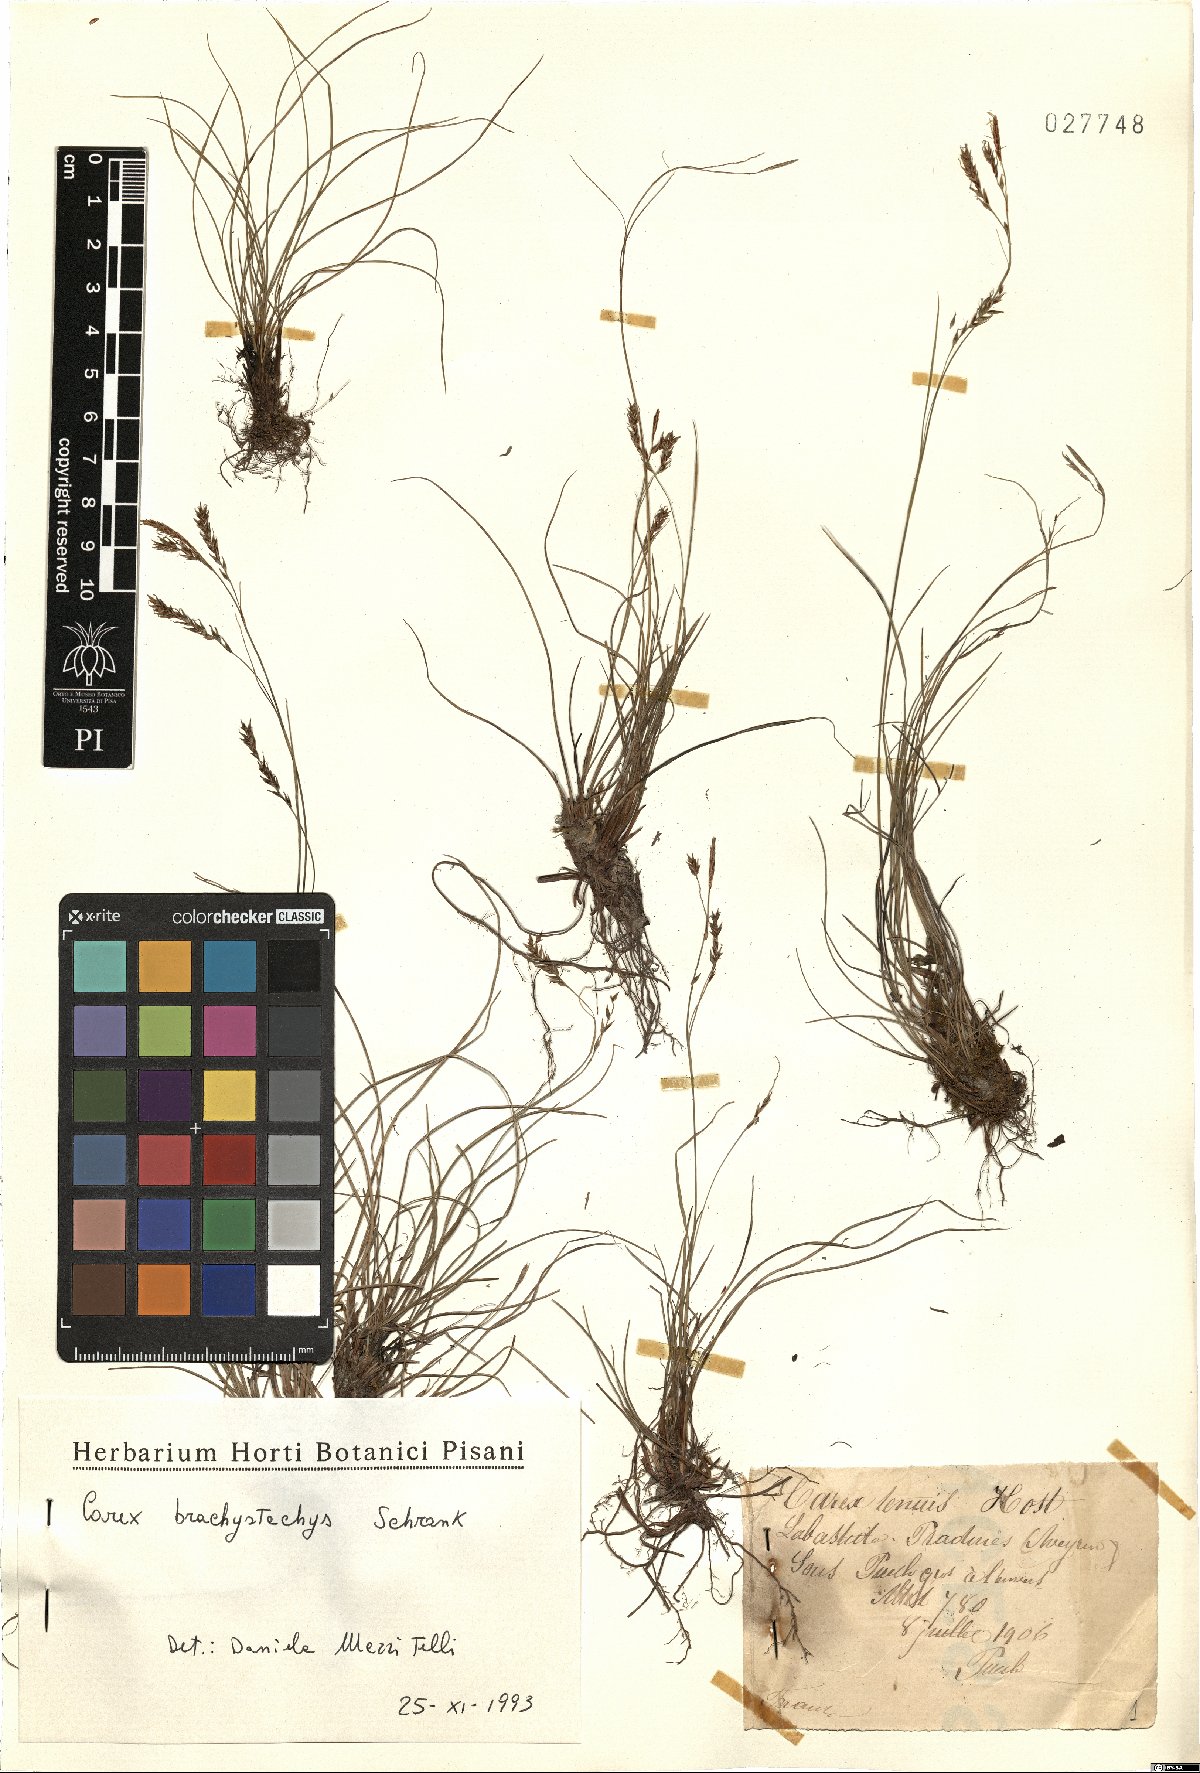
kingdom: Plantae
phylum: Tracheophyta
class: Liliopsida
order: Poales
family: Cyperaceae
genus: Carex
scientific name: Carex brachystachys
